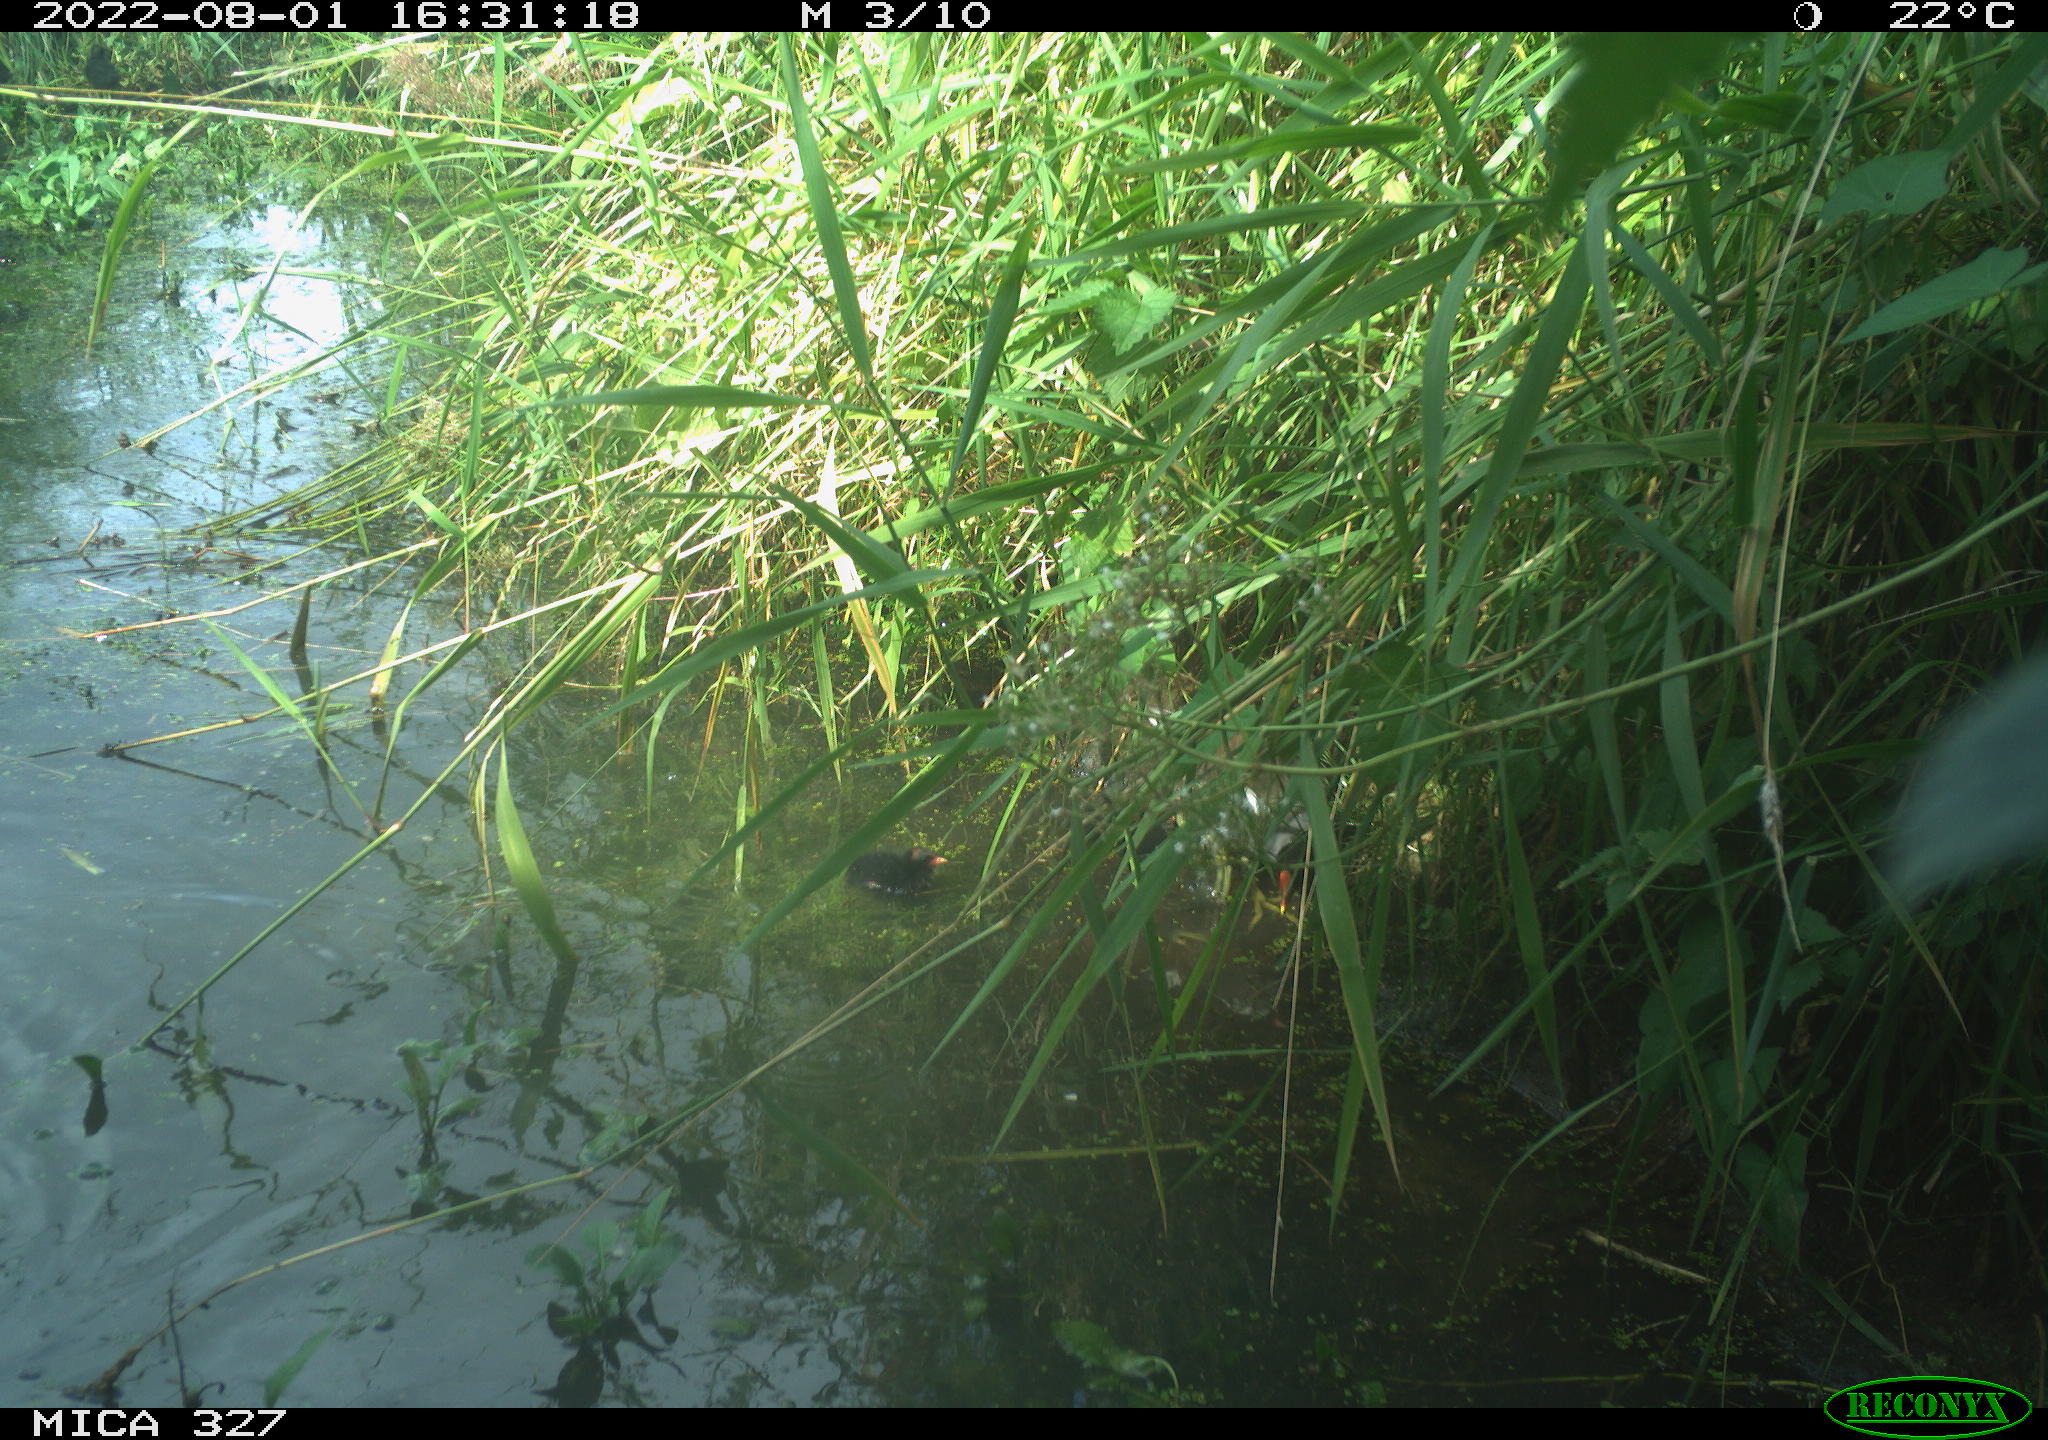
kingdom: Animalia
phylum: Chordata
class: Aves
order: Gruiformes
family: Rallidae
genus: Gallinula
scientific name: Gallinula chloropus
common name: Common moorhen
